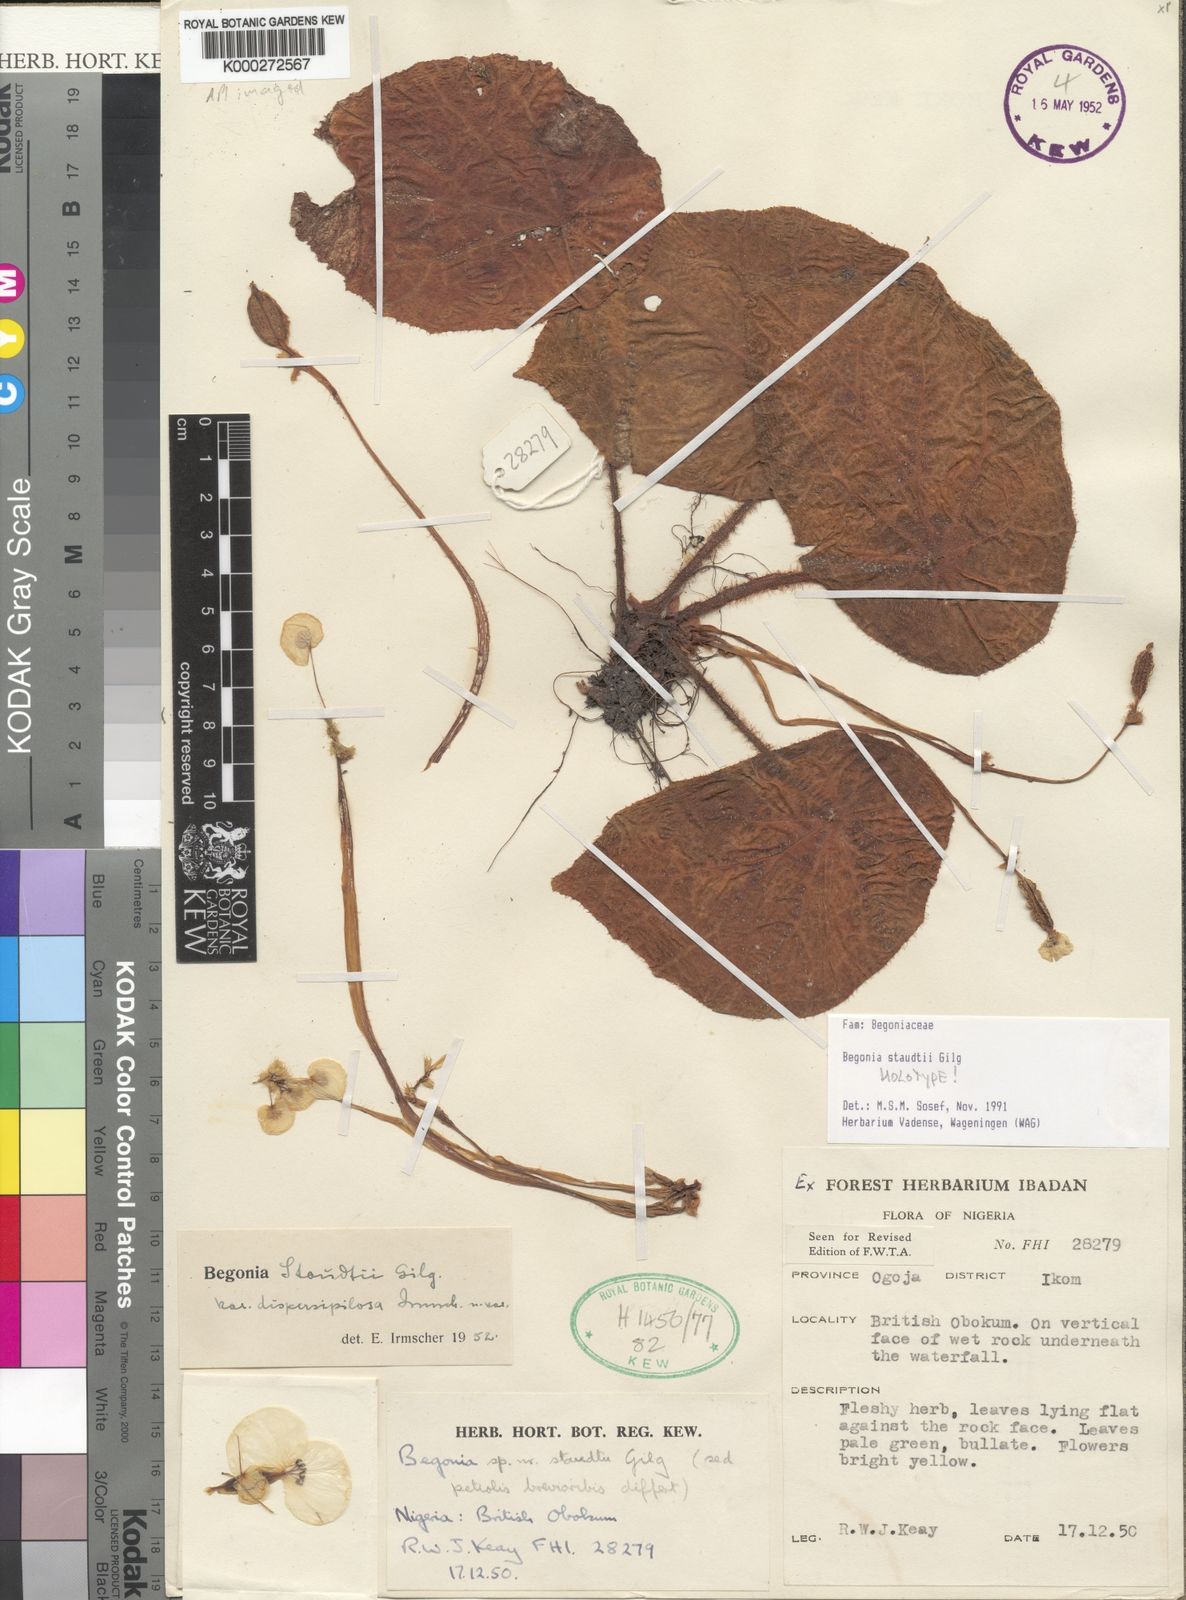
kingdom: Plantae
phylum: Tracheophyta
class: Magnoliopsida
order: Cucurbitales
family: Begoniaceae
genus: Begonia
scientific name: Begonia staudtii
